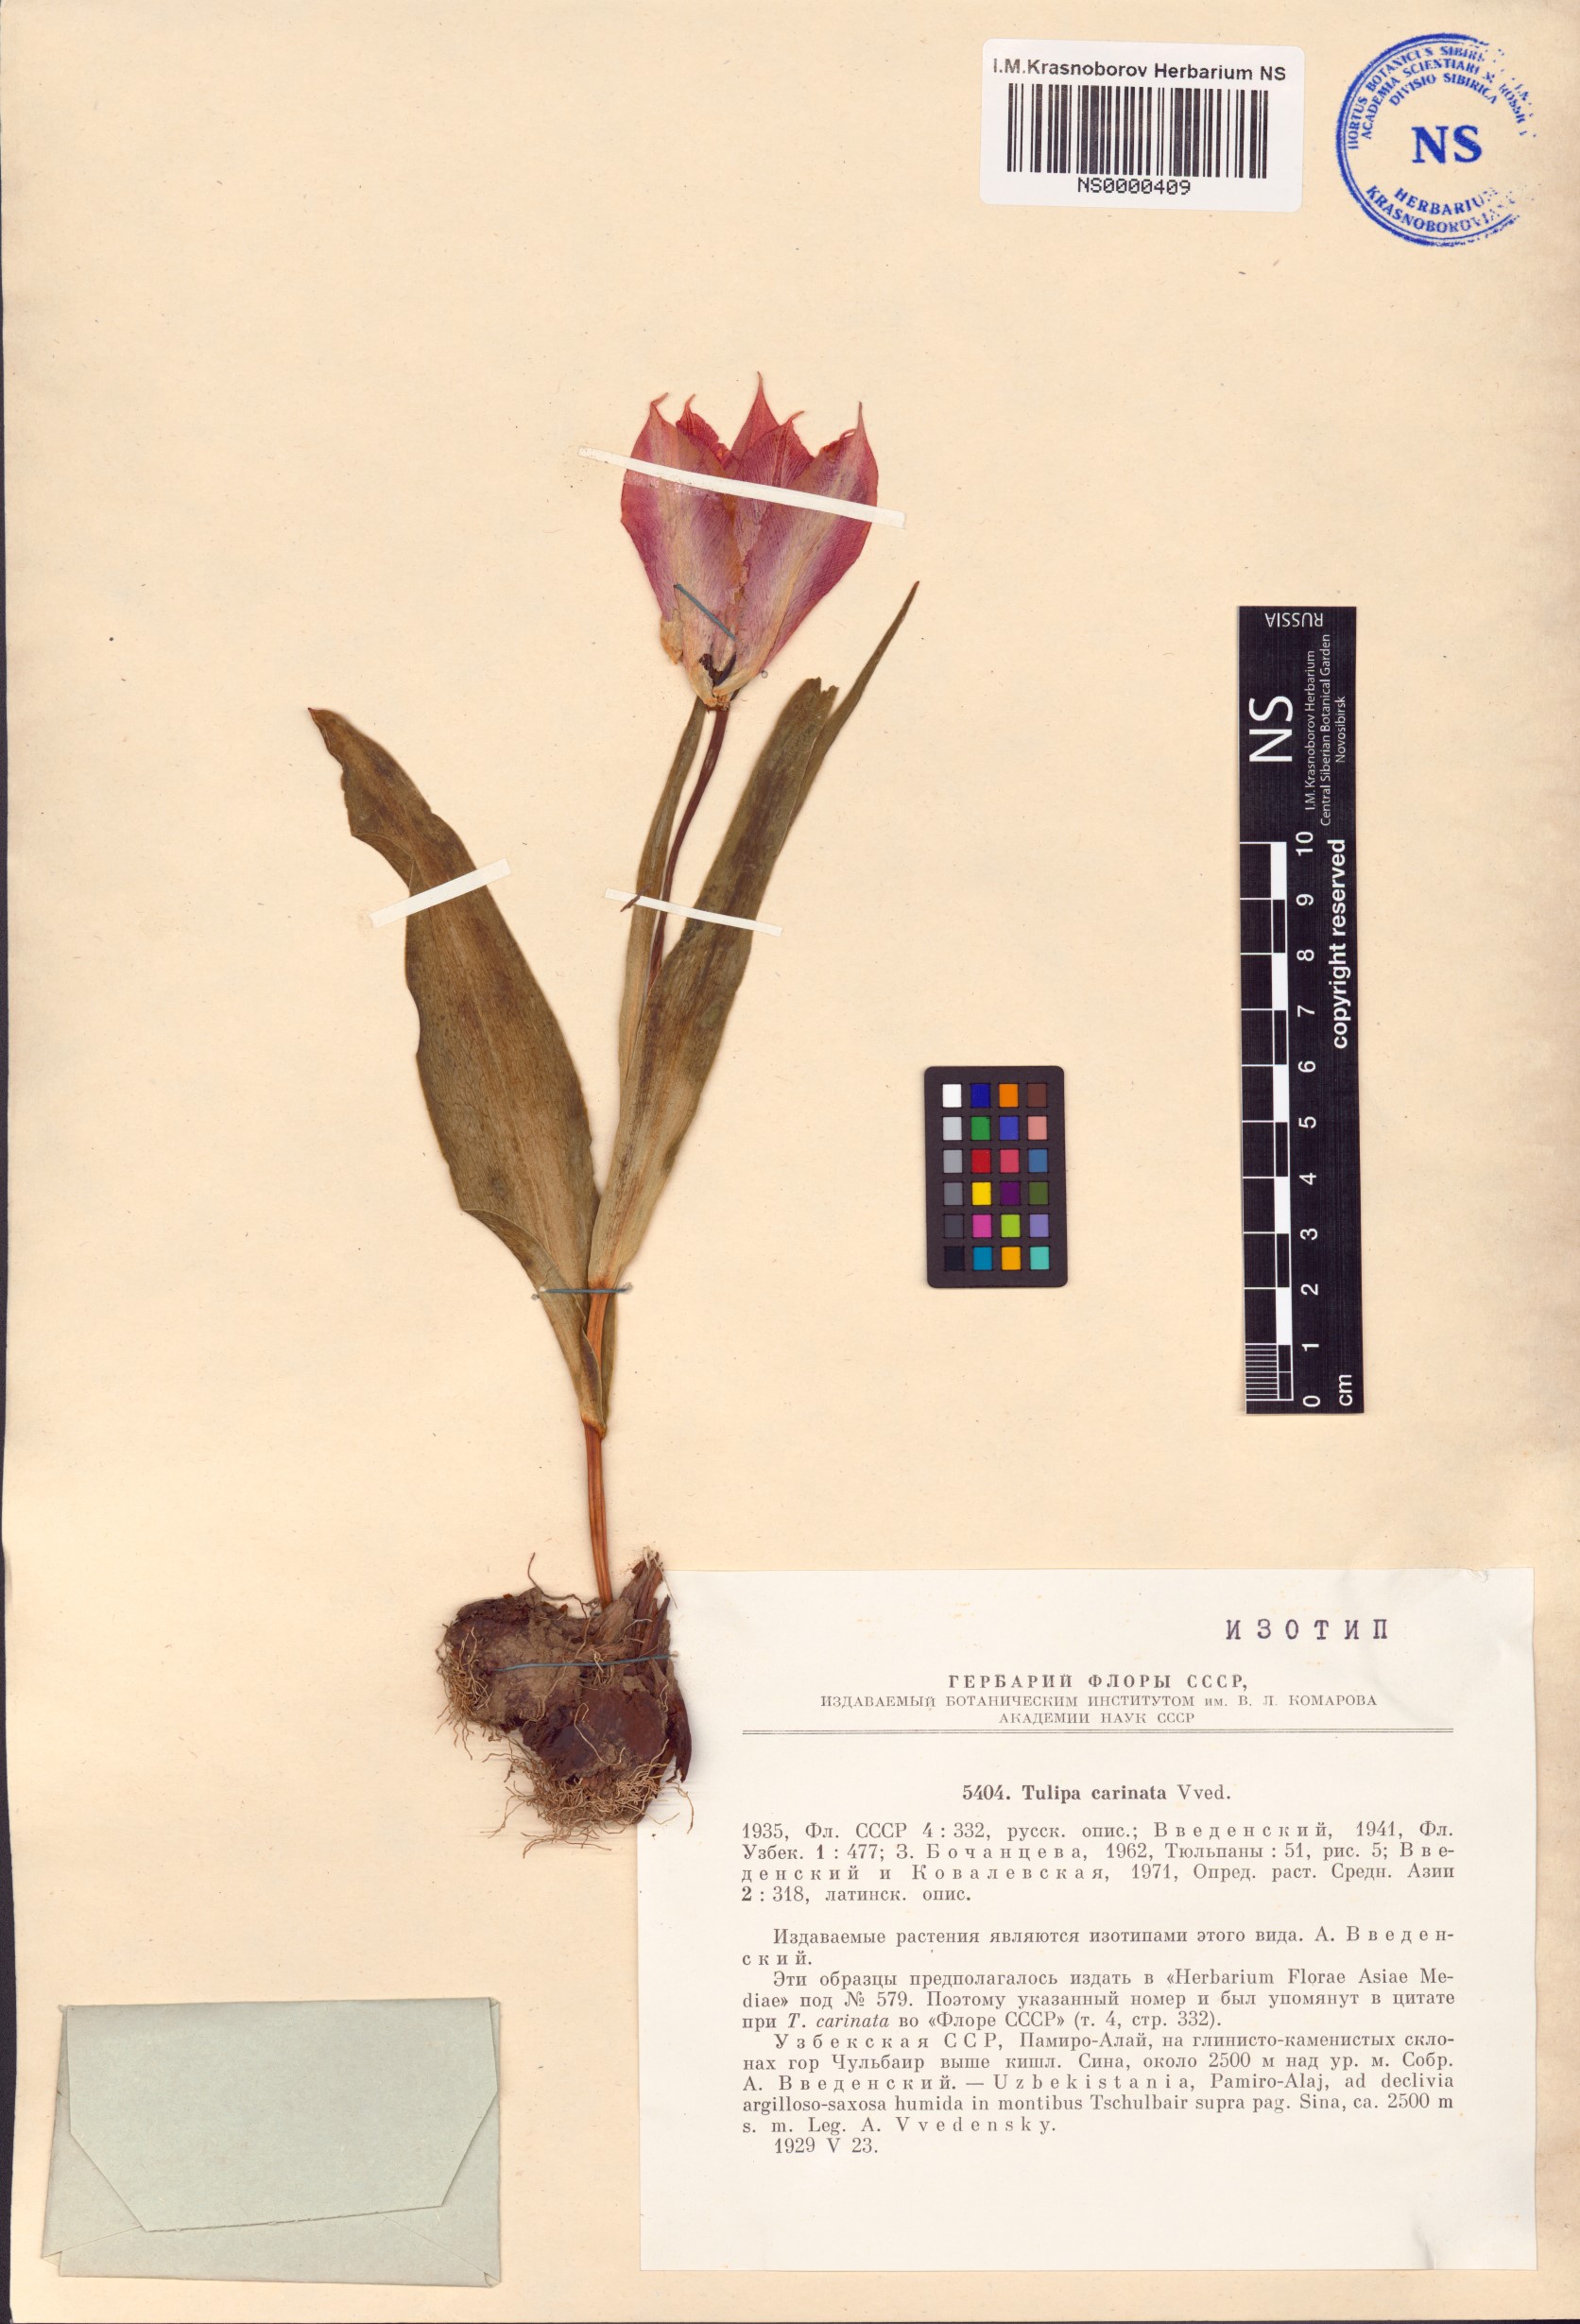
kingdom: Plantae
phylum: Tracheophyta
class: Liliopsida
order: Liliales
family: Liliaceae
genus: Tulipa
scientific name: Tulipa carinata
